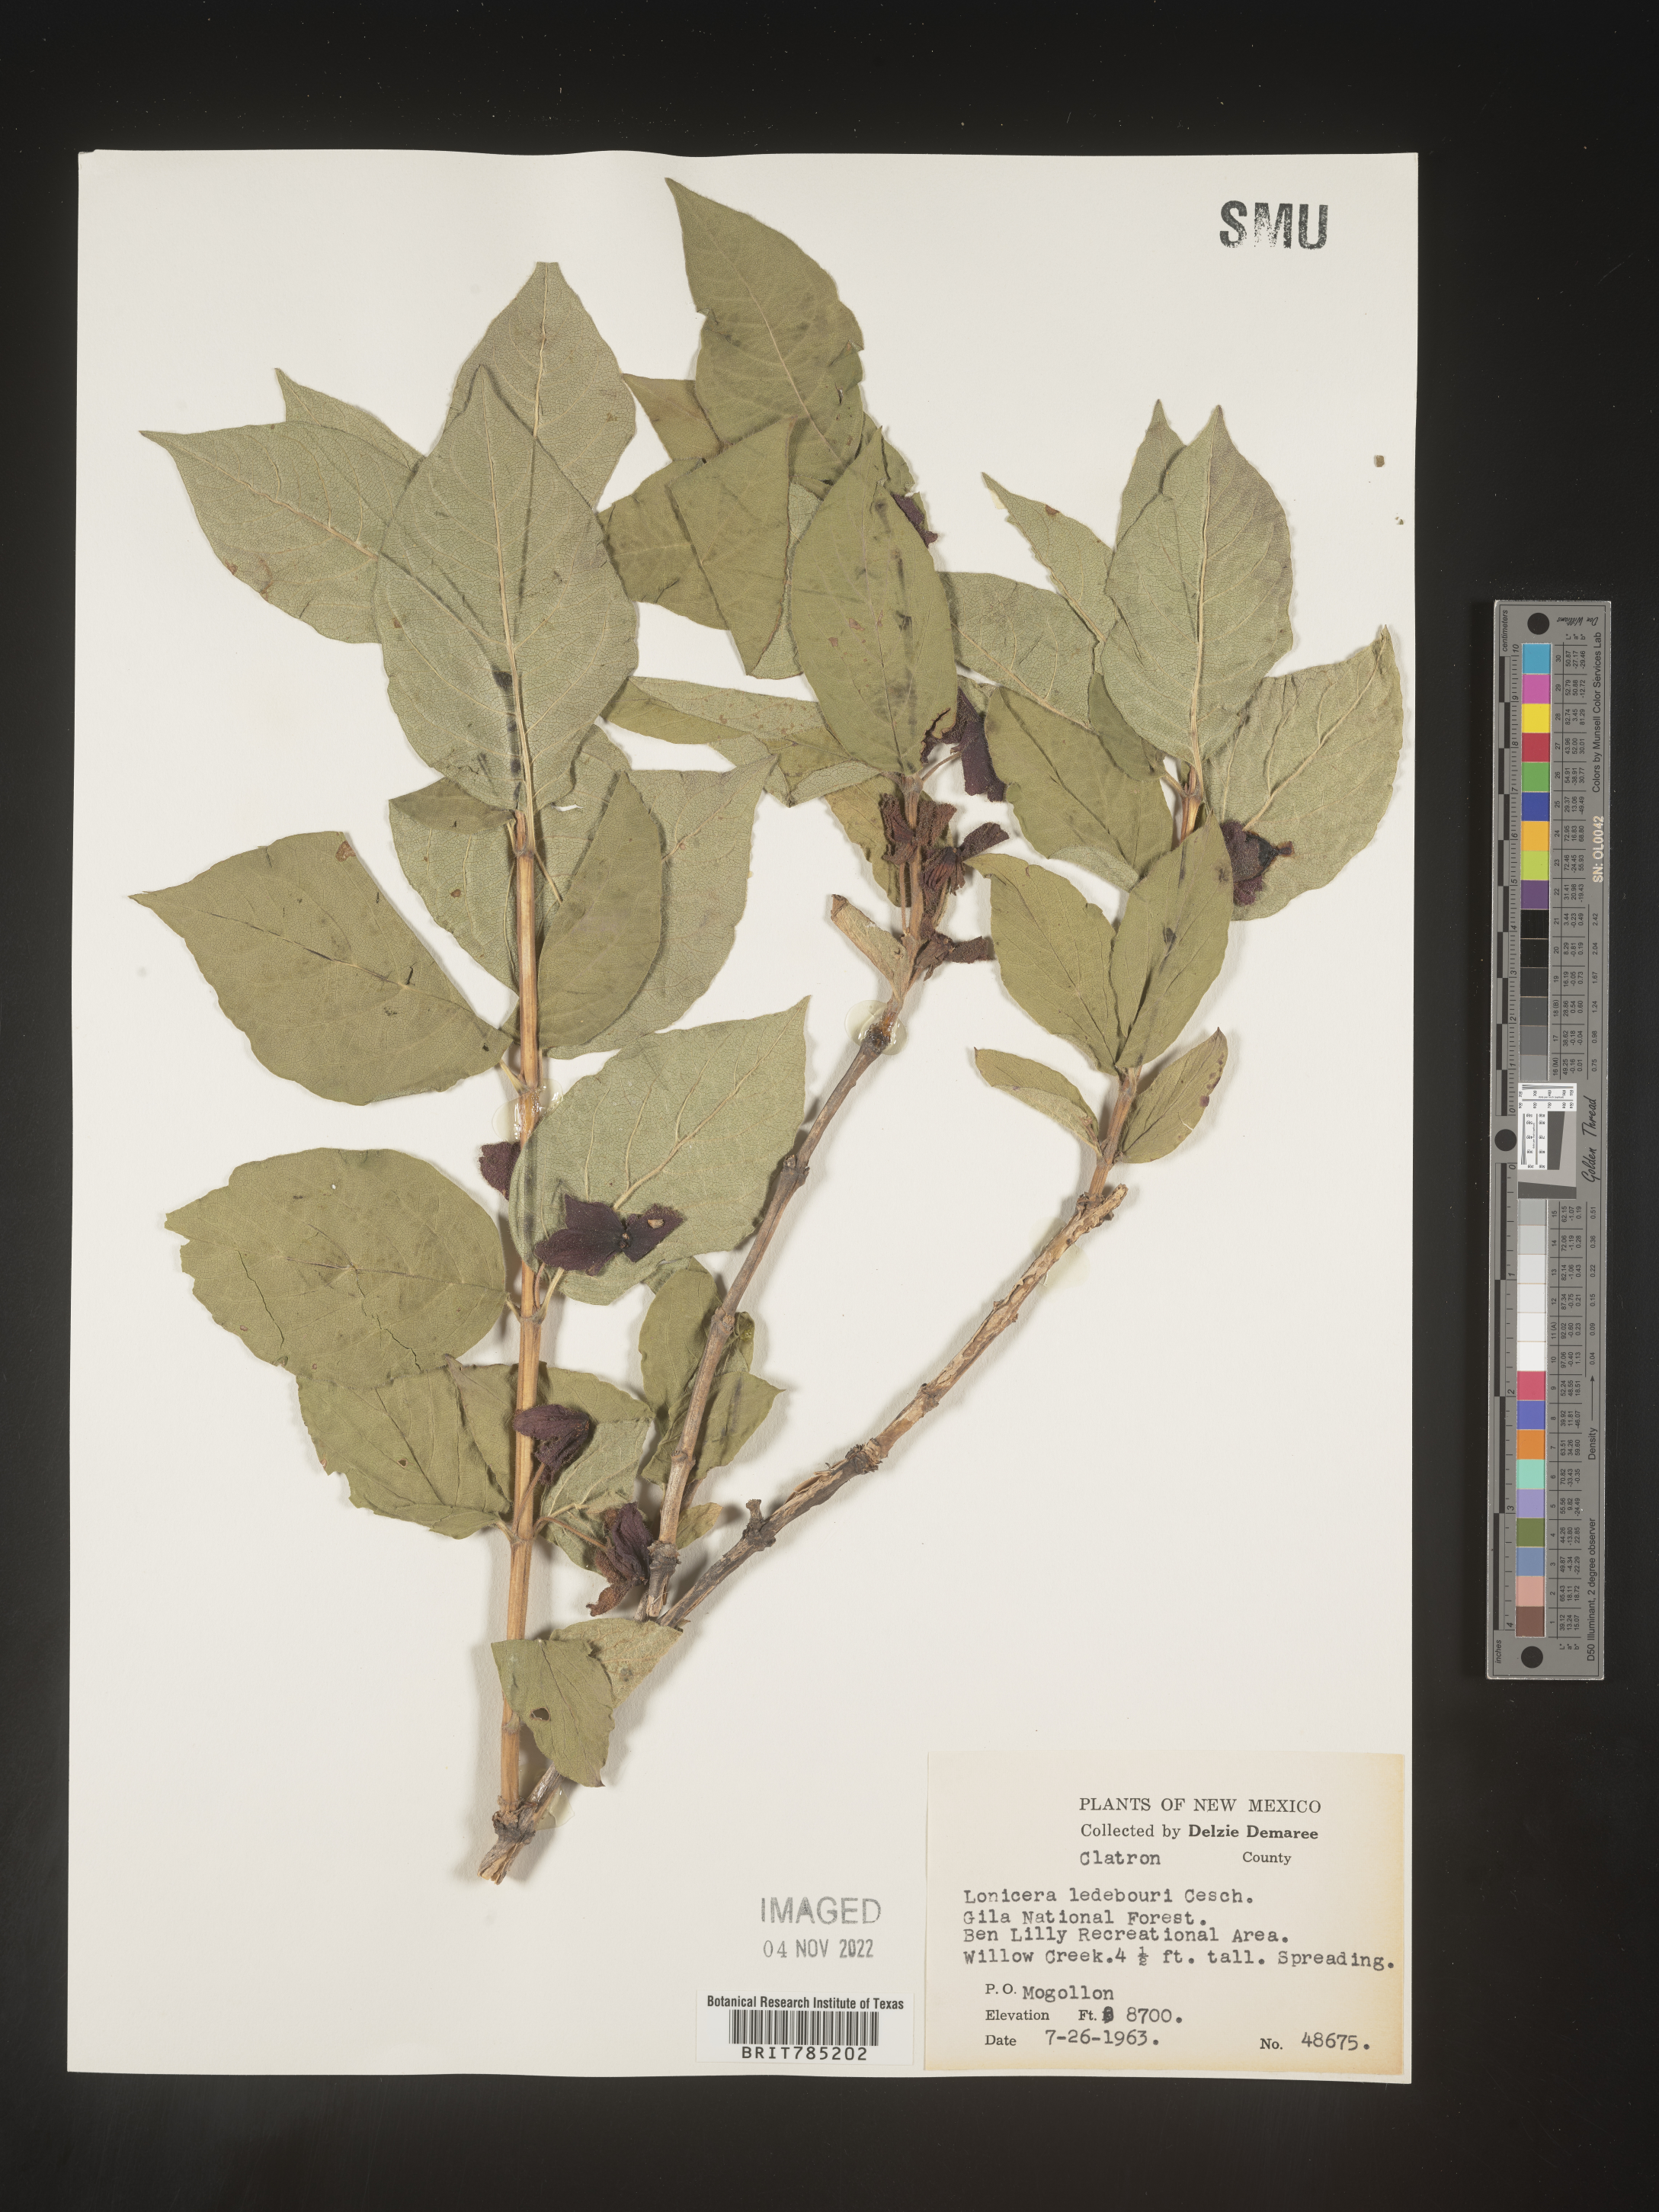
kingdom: Plantae
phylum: Tracheophyta
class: Magnoliopsida
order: Dipsacales
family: Caprifoliaceae
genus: Lonicera
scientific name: Lonicera
